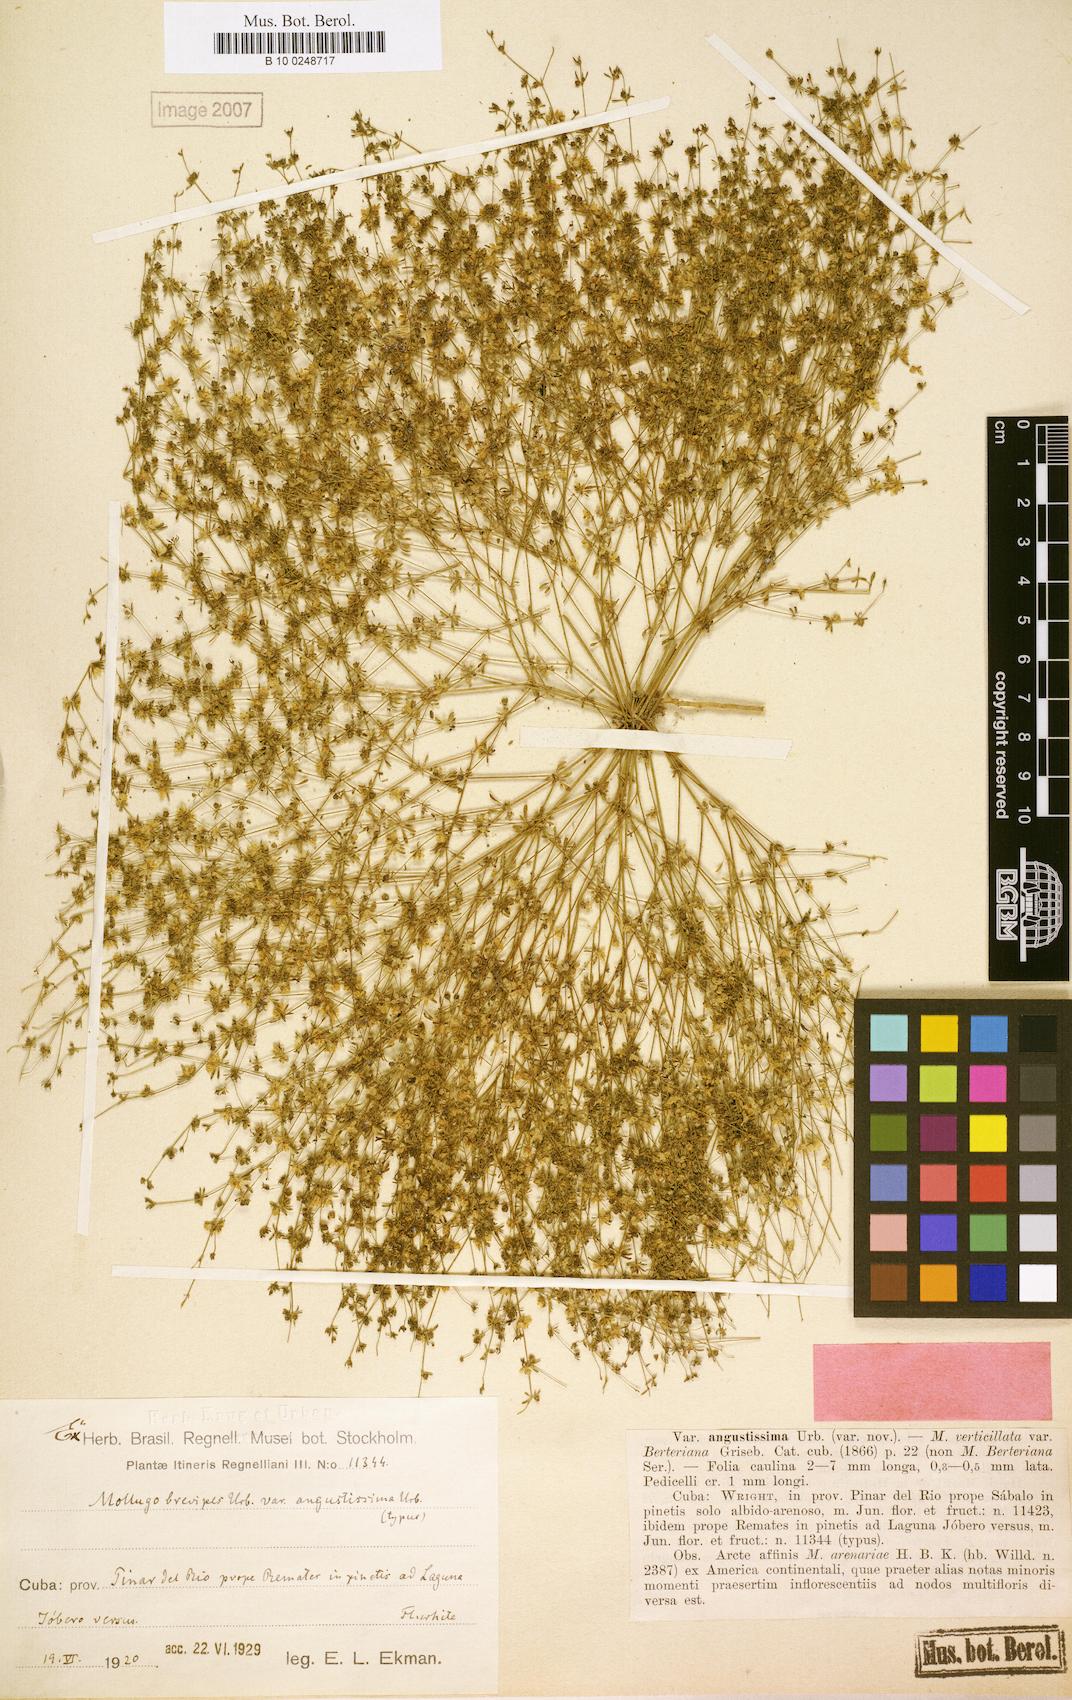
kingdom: Plantae
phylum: Tracheophyta
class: Magnoliopsida
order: Caryophyllales
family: Molluginaceae
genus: Mollugo
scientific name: Mollugo brevipes
